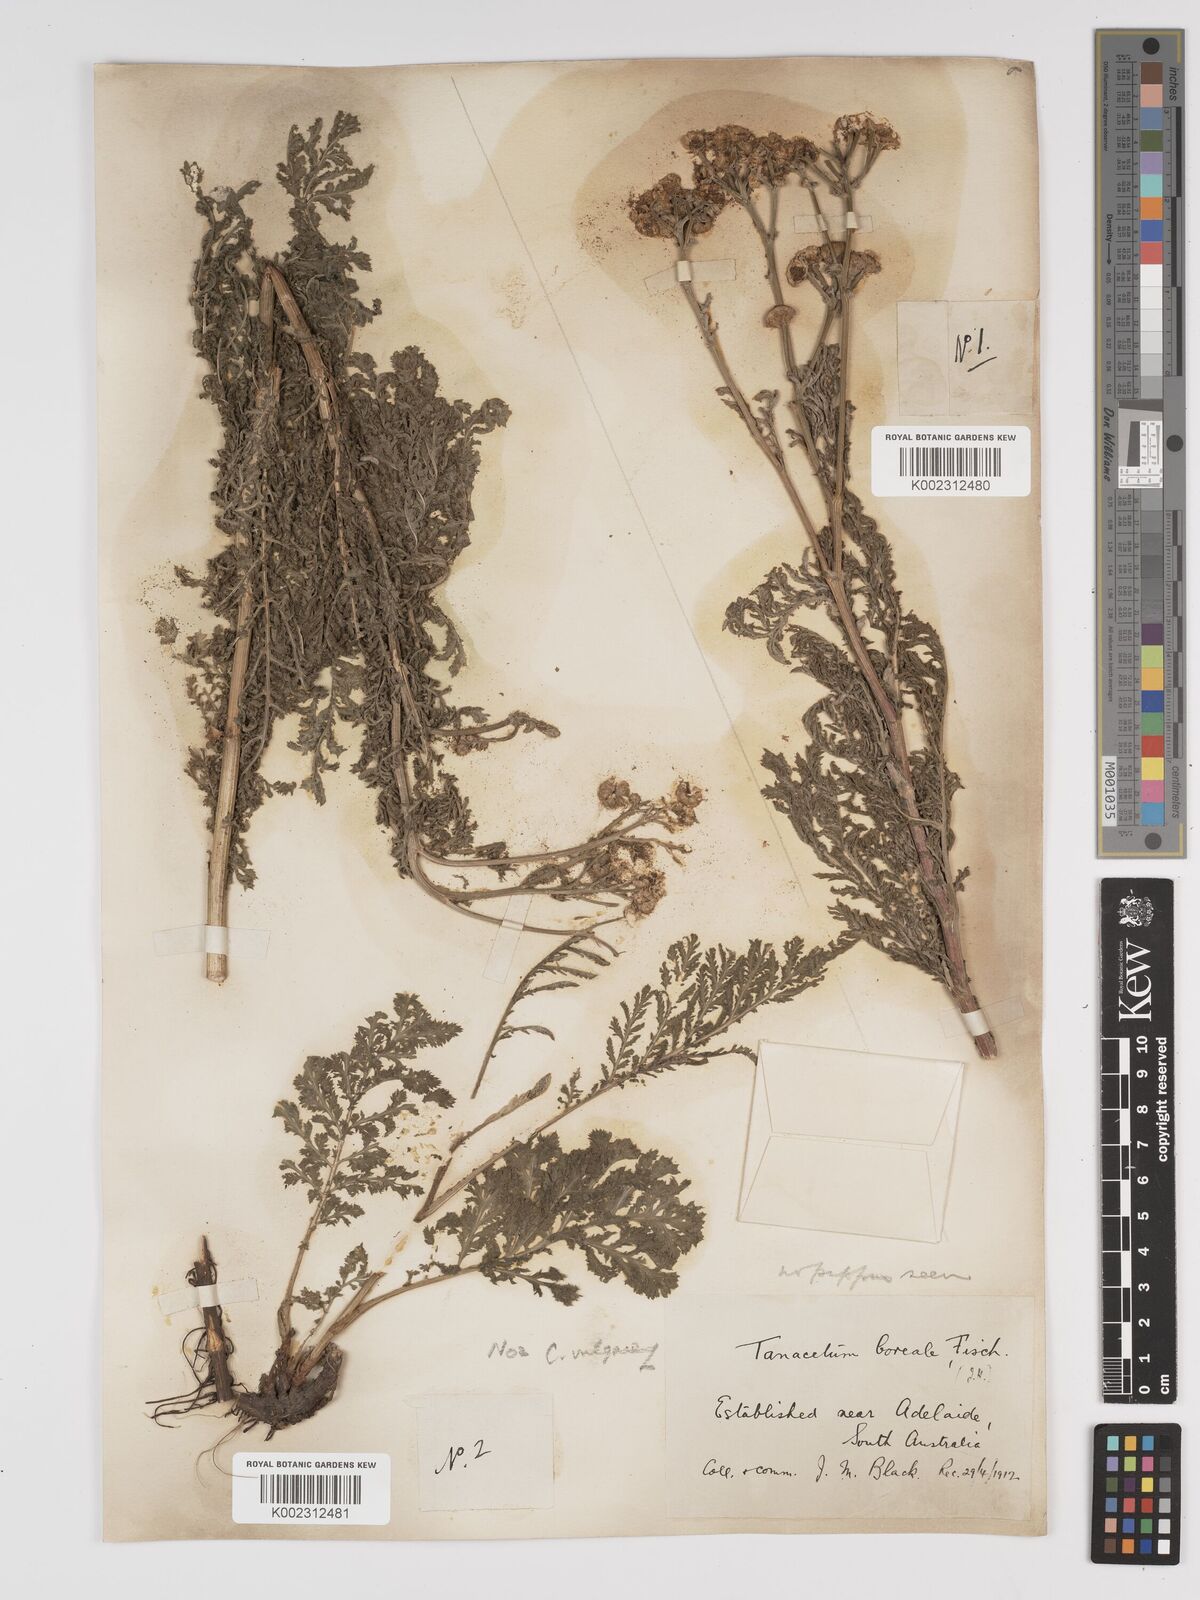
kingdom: Plantae
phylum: Tracheophyta
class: Magnoliopsida
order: Asterales
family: Asteraceae
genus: Tanacetum
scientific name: Tanacetum vulgare
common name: Common tansy
